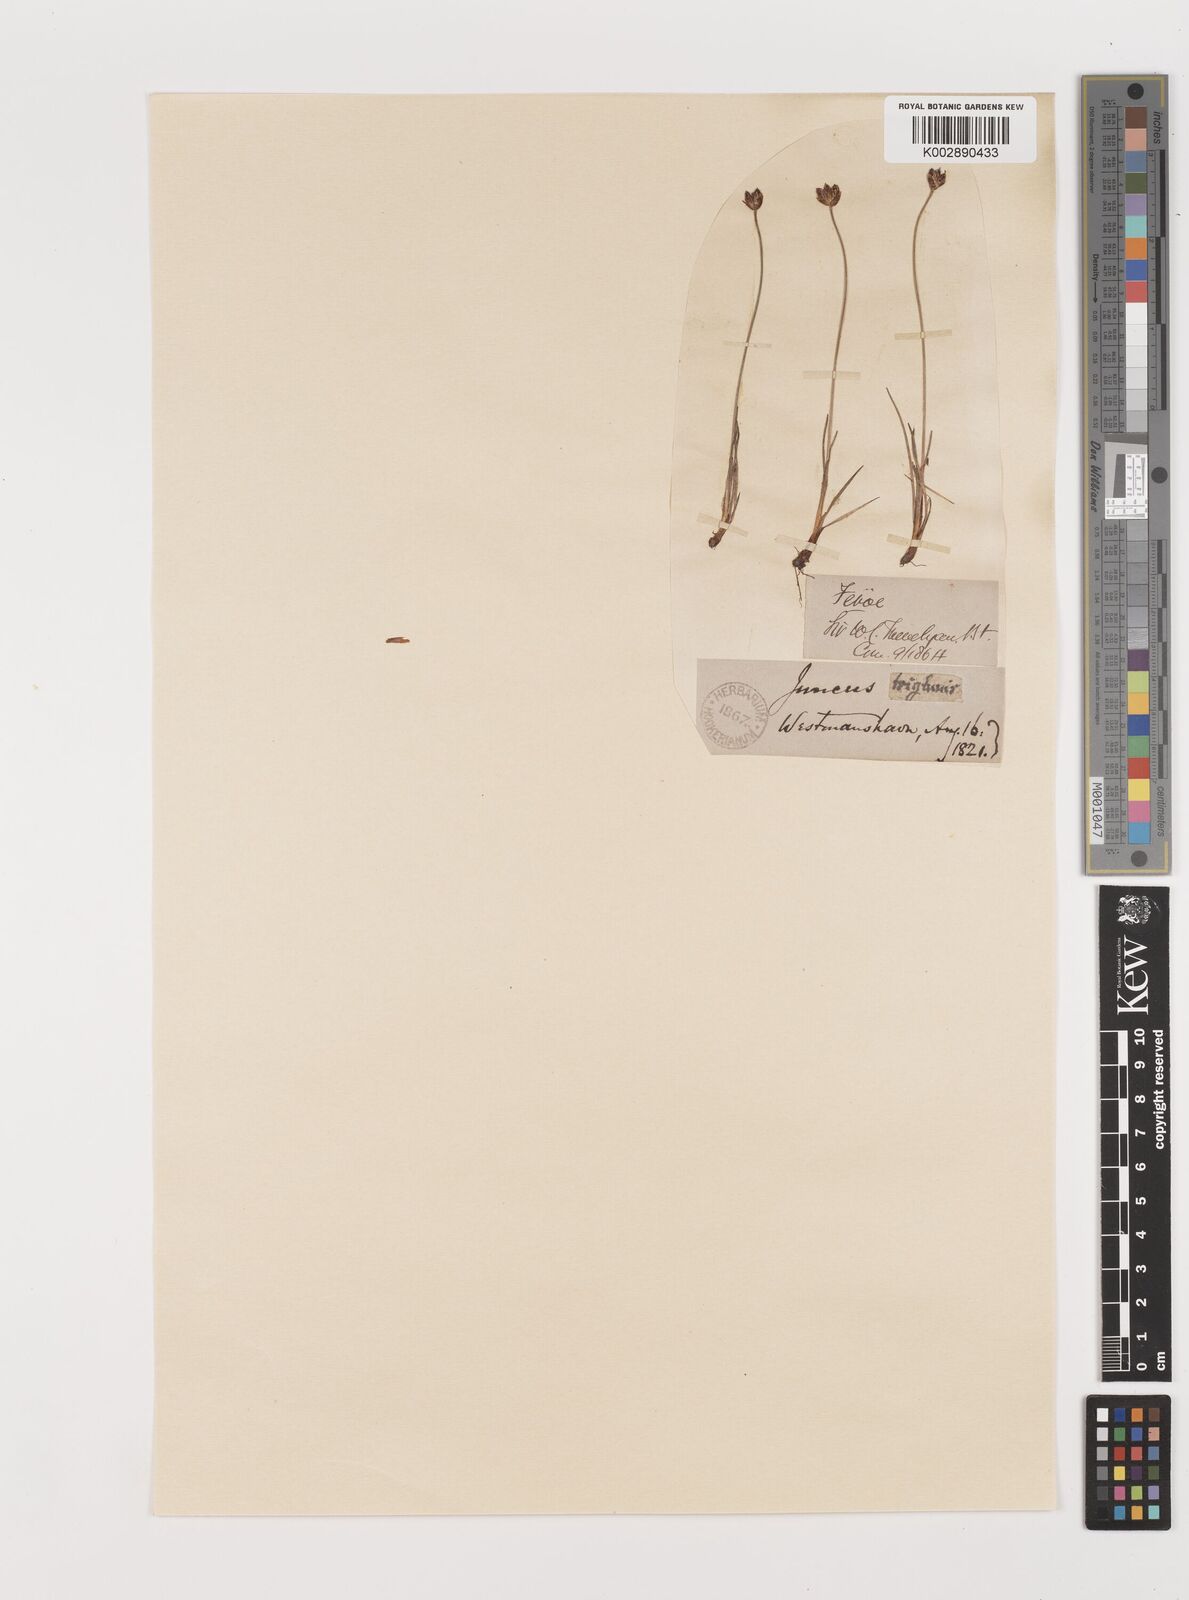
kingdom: Plantae
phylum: Tracheophyta
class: Liliopsida
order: Poales
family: Juncaceae
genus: Juncus
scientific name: Juncus triglumis
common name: Three-flowered rush
